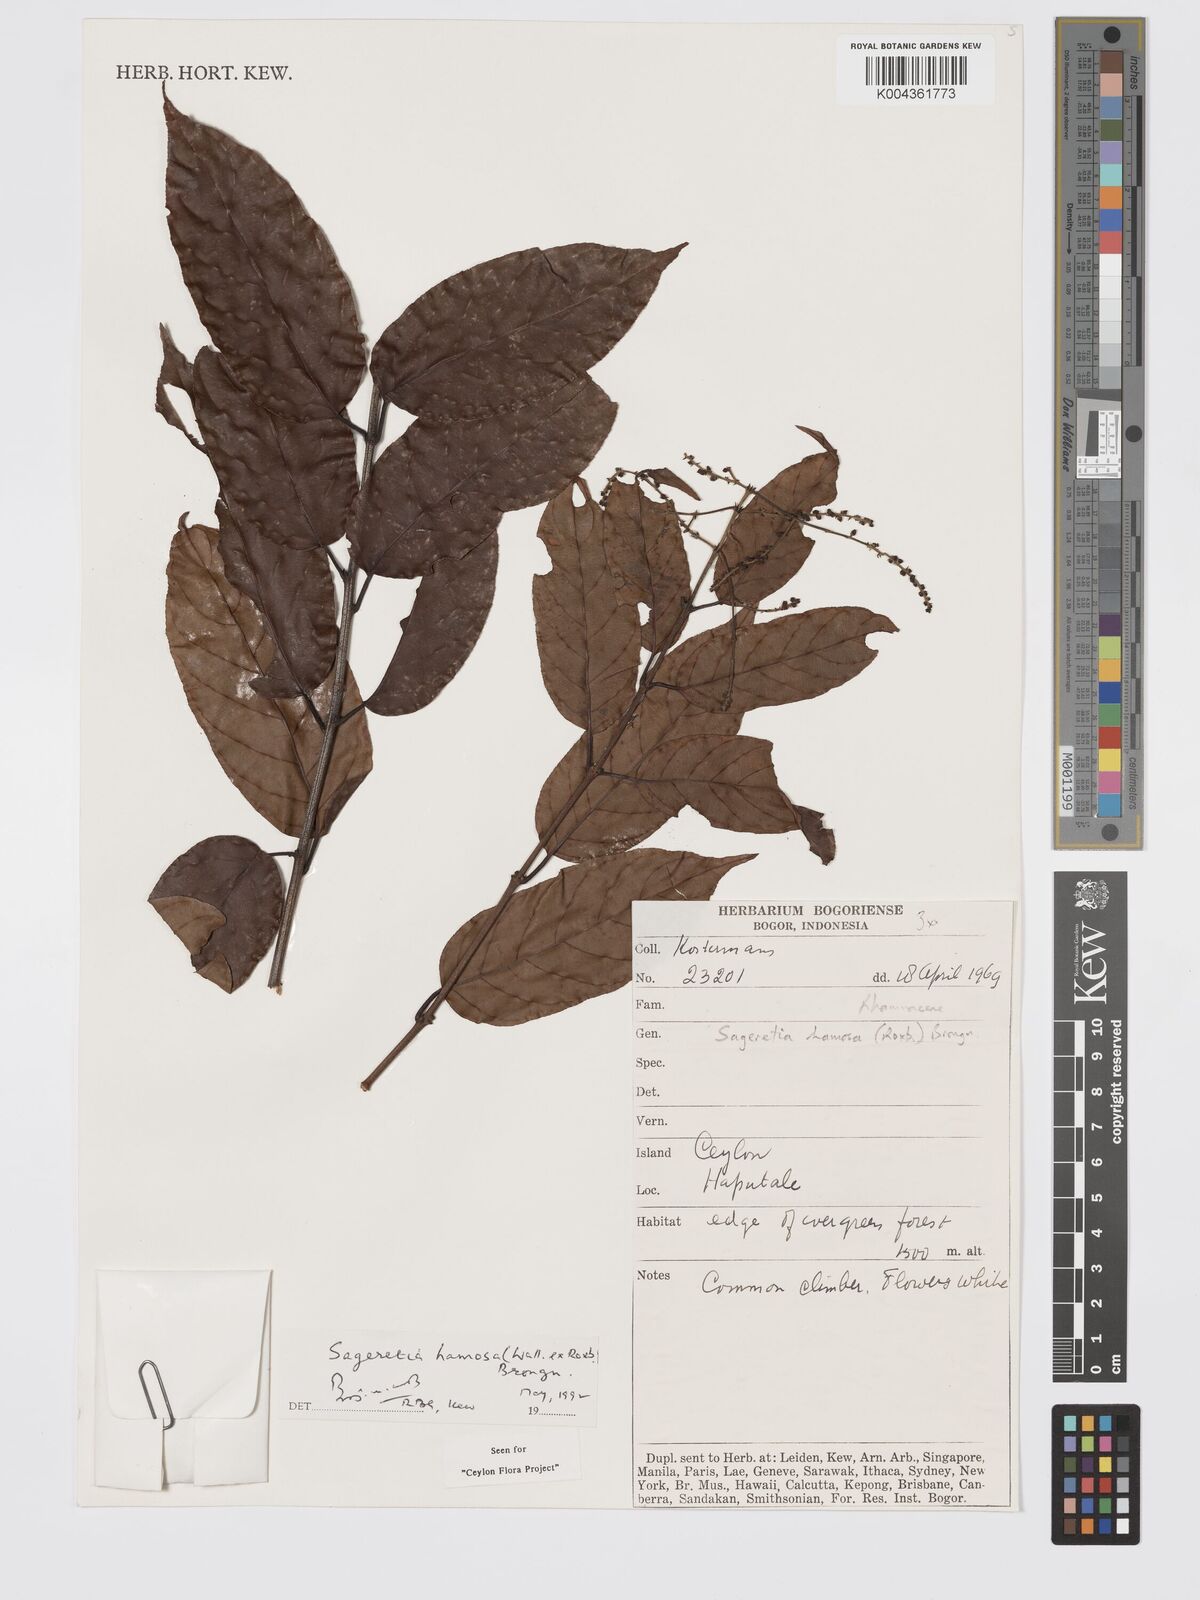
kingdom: Plantae
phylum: Tracheophyta
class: Magnoliopsida
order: Rosales
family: Rhamnaceae
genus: Sageretia
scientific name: Sageretia hamosa
